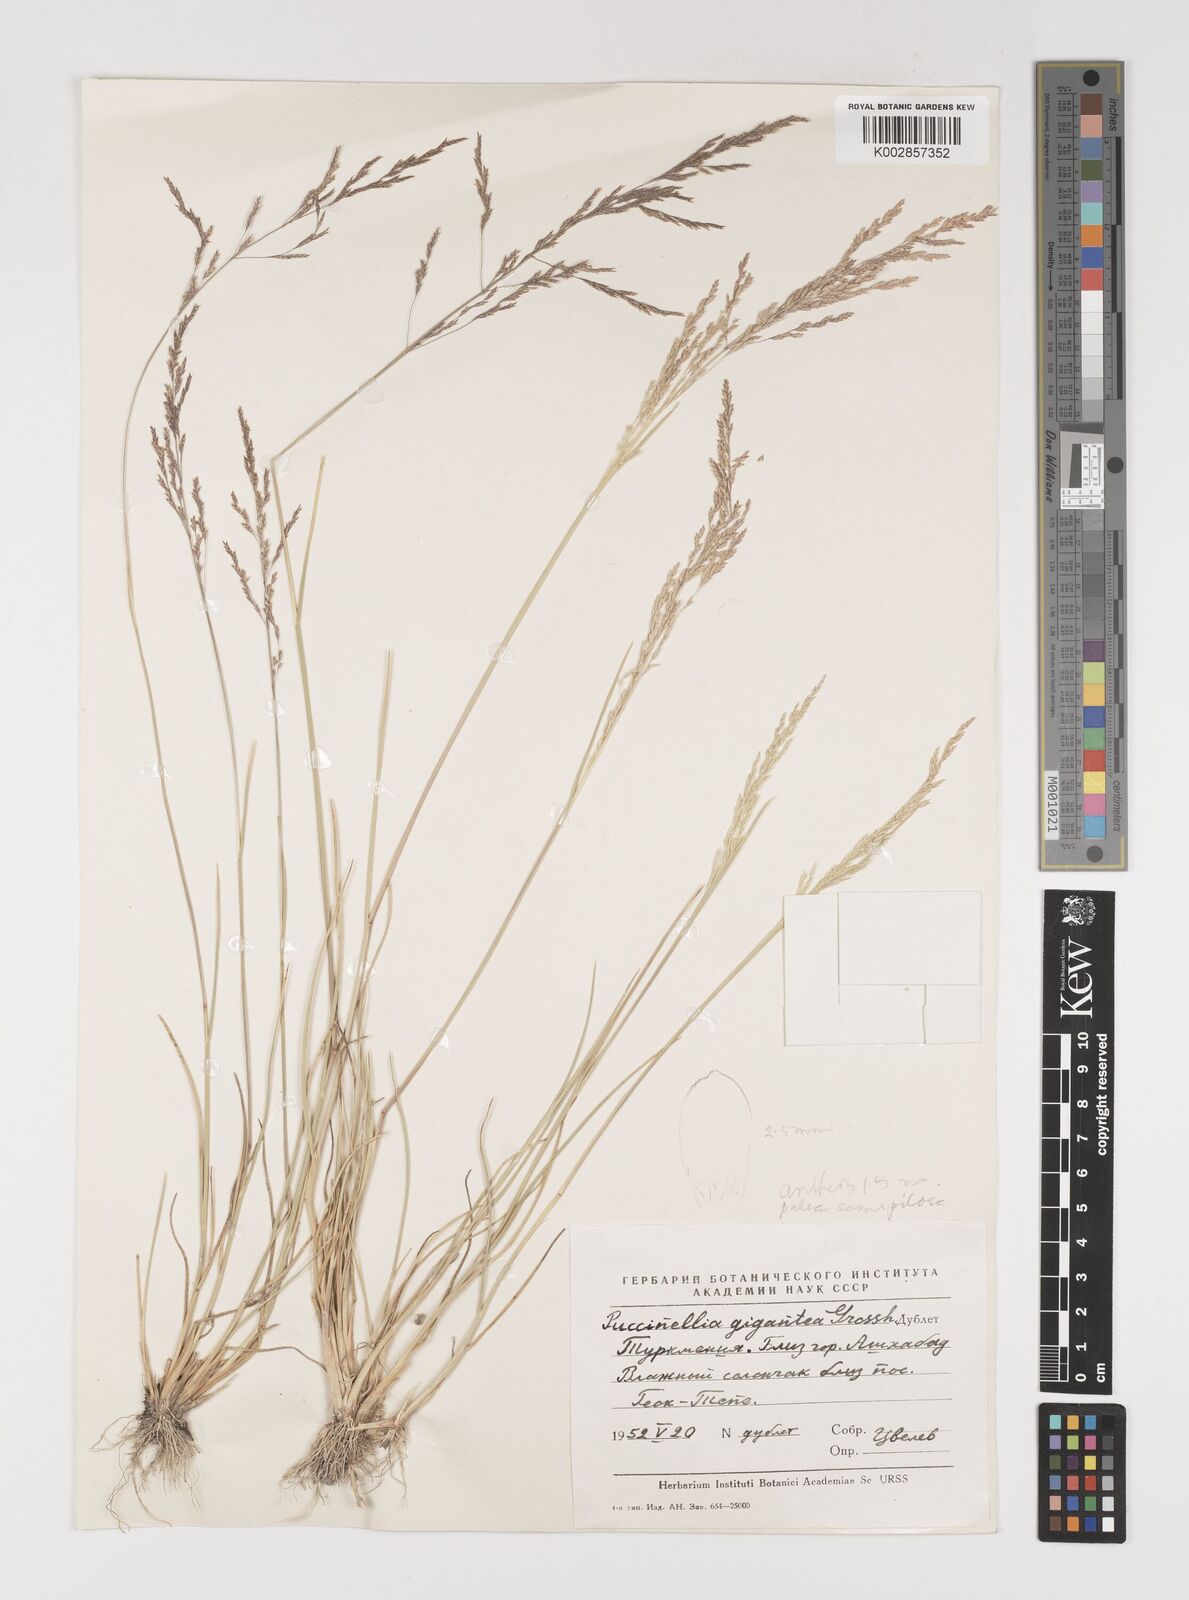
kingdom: Plantae
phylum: Tracheophyta
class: Liliopsida
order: Poales
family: Poaceae
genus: Puccinellia
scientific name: Puccinellia gigantea
